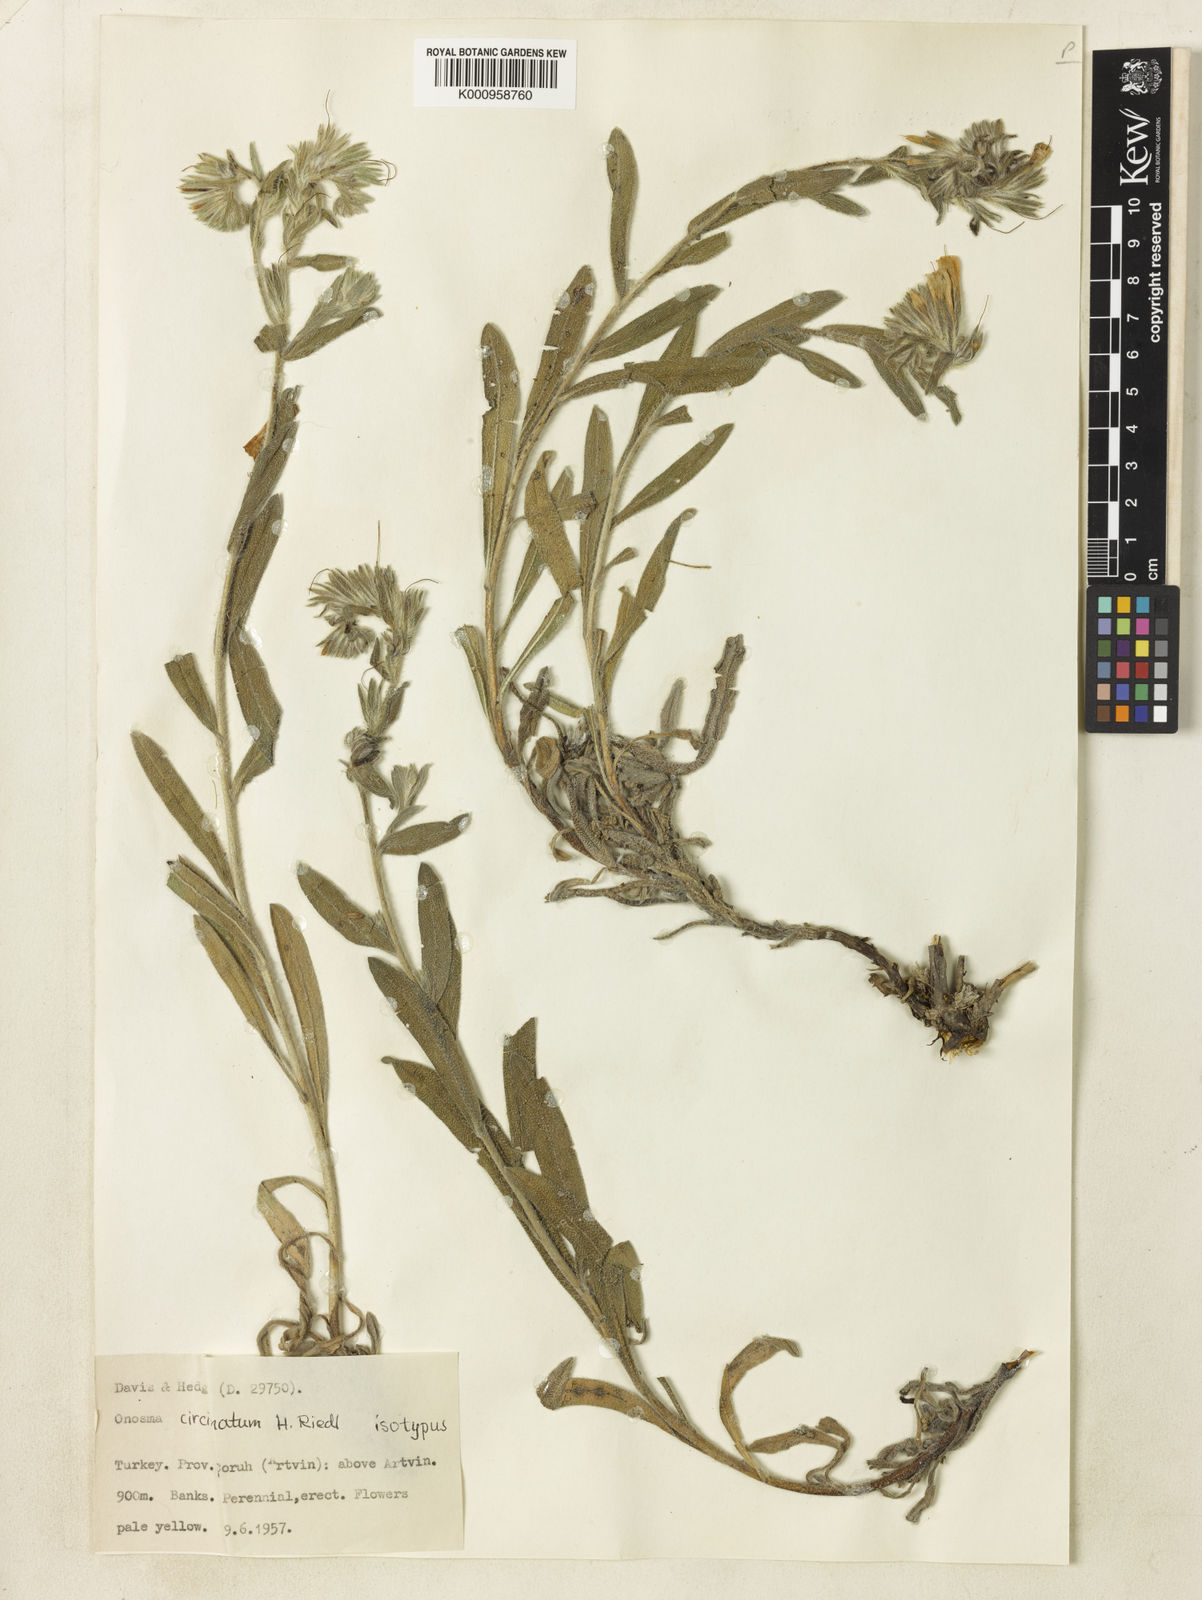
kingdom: Plantae
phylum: Tracheophyta
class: Magnoliopsida
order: Boraginales
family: Boraginaceae
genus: Onosma
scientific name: Onosma bourgaei
